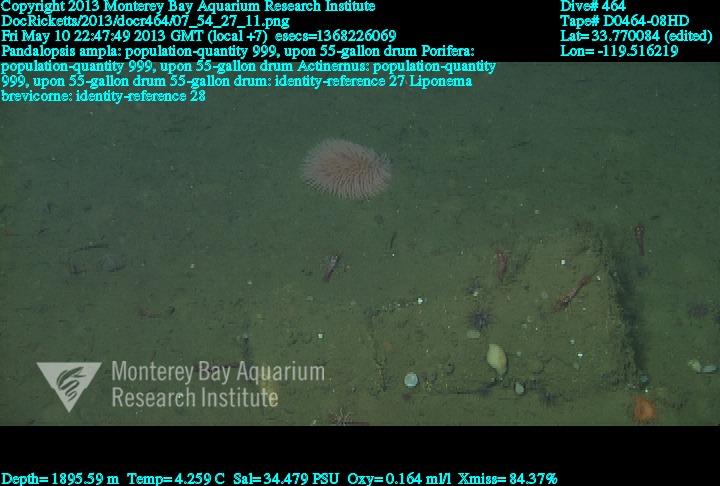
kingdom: Animalia
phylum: Porifera
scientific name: Porifera
